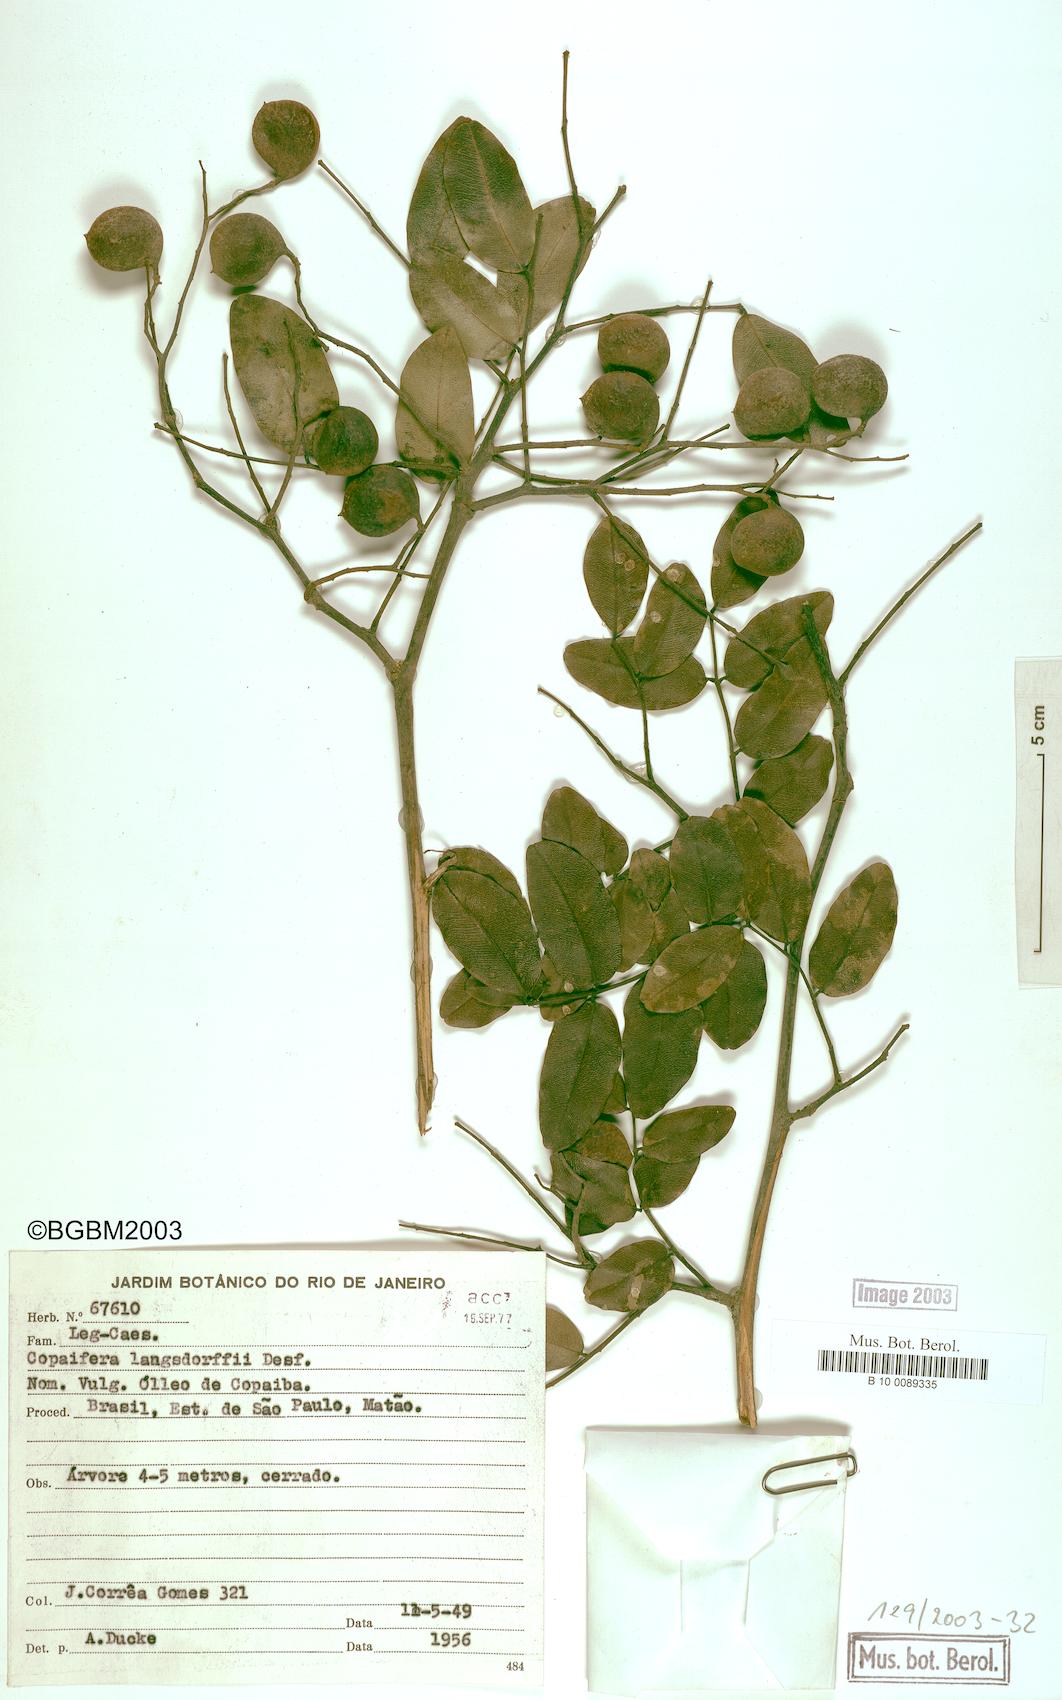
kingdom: Plantae
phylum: Tracheophyta
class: Magnoliopsida
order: Fabales
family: Fabaceae
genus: Copaifera
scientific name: Copaifera langsdorffii
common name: Brazilian diesel tree
